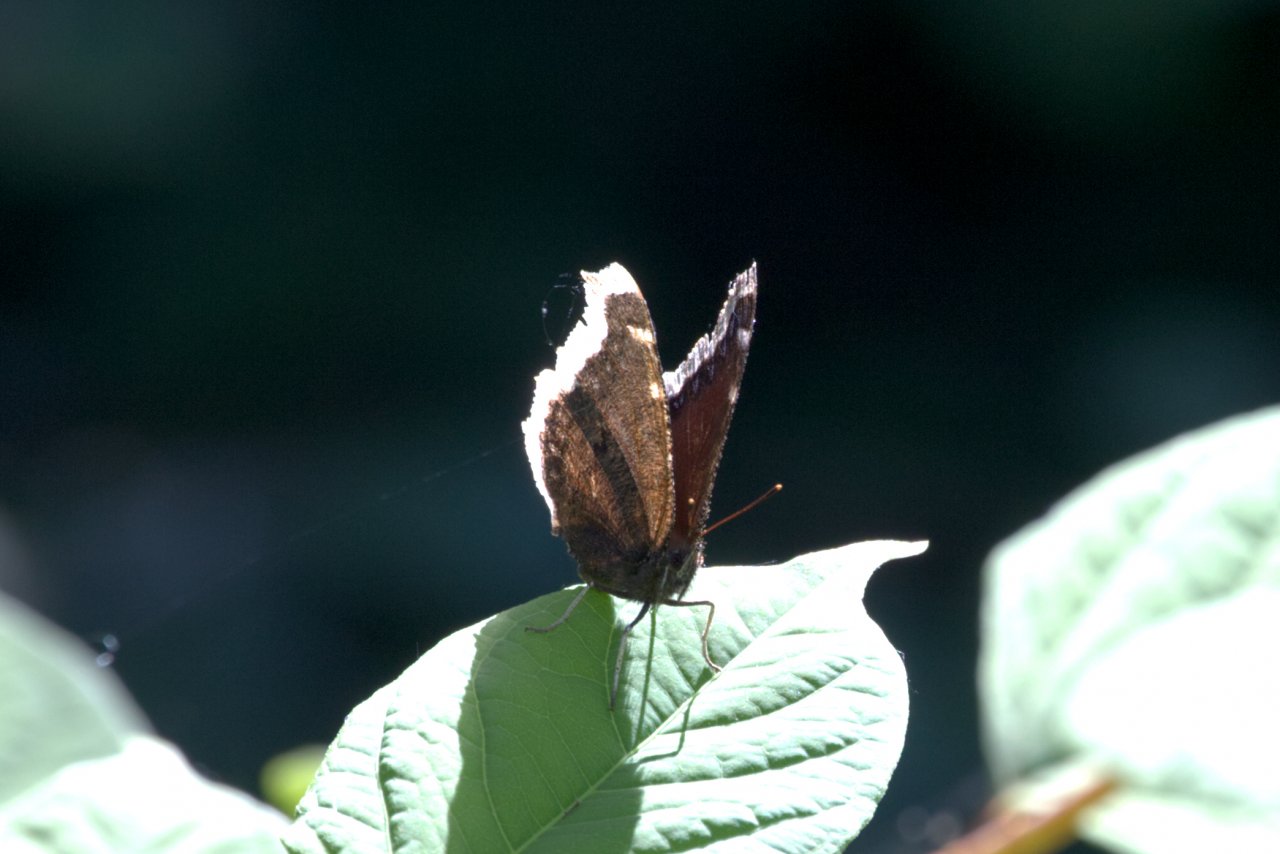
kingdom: Animalia
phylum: Arthropoda
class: Insecta
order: Lepidoptera
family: Nymphalidae
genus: Nymphalis
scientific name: Nymphalis antiopa
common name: Mourning Cloak
